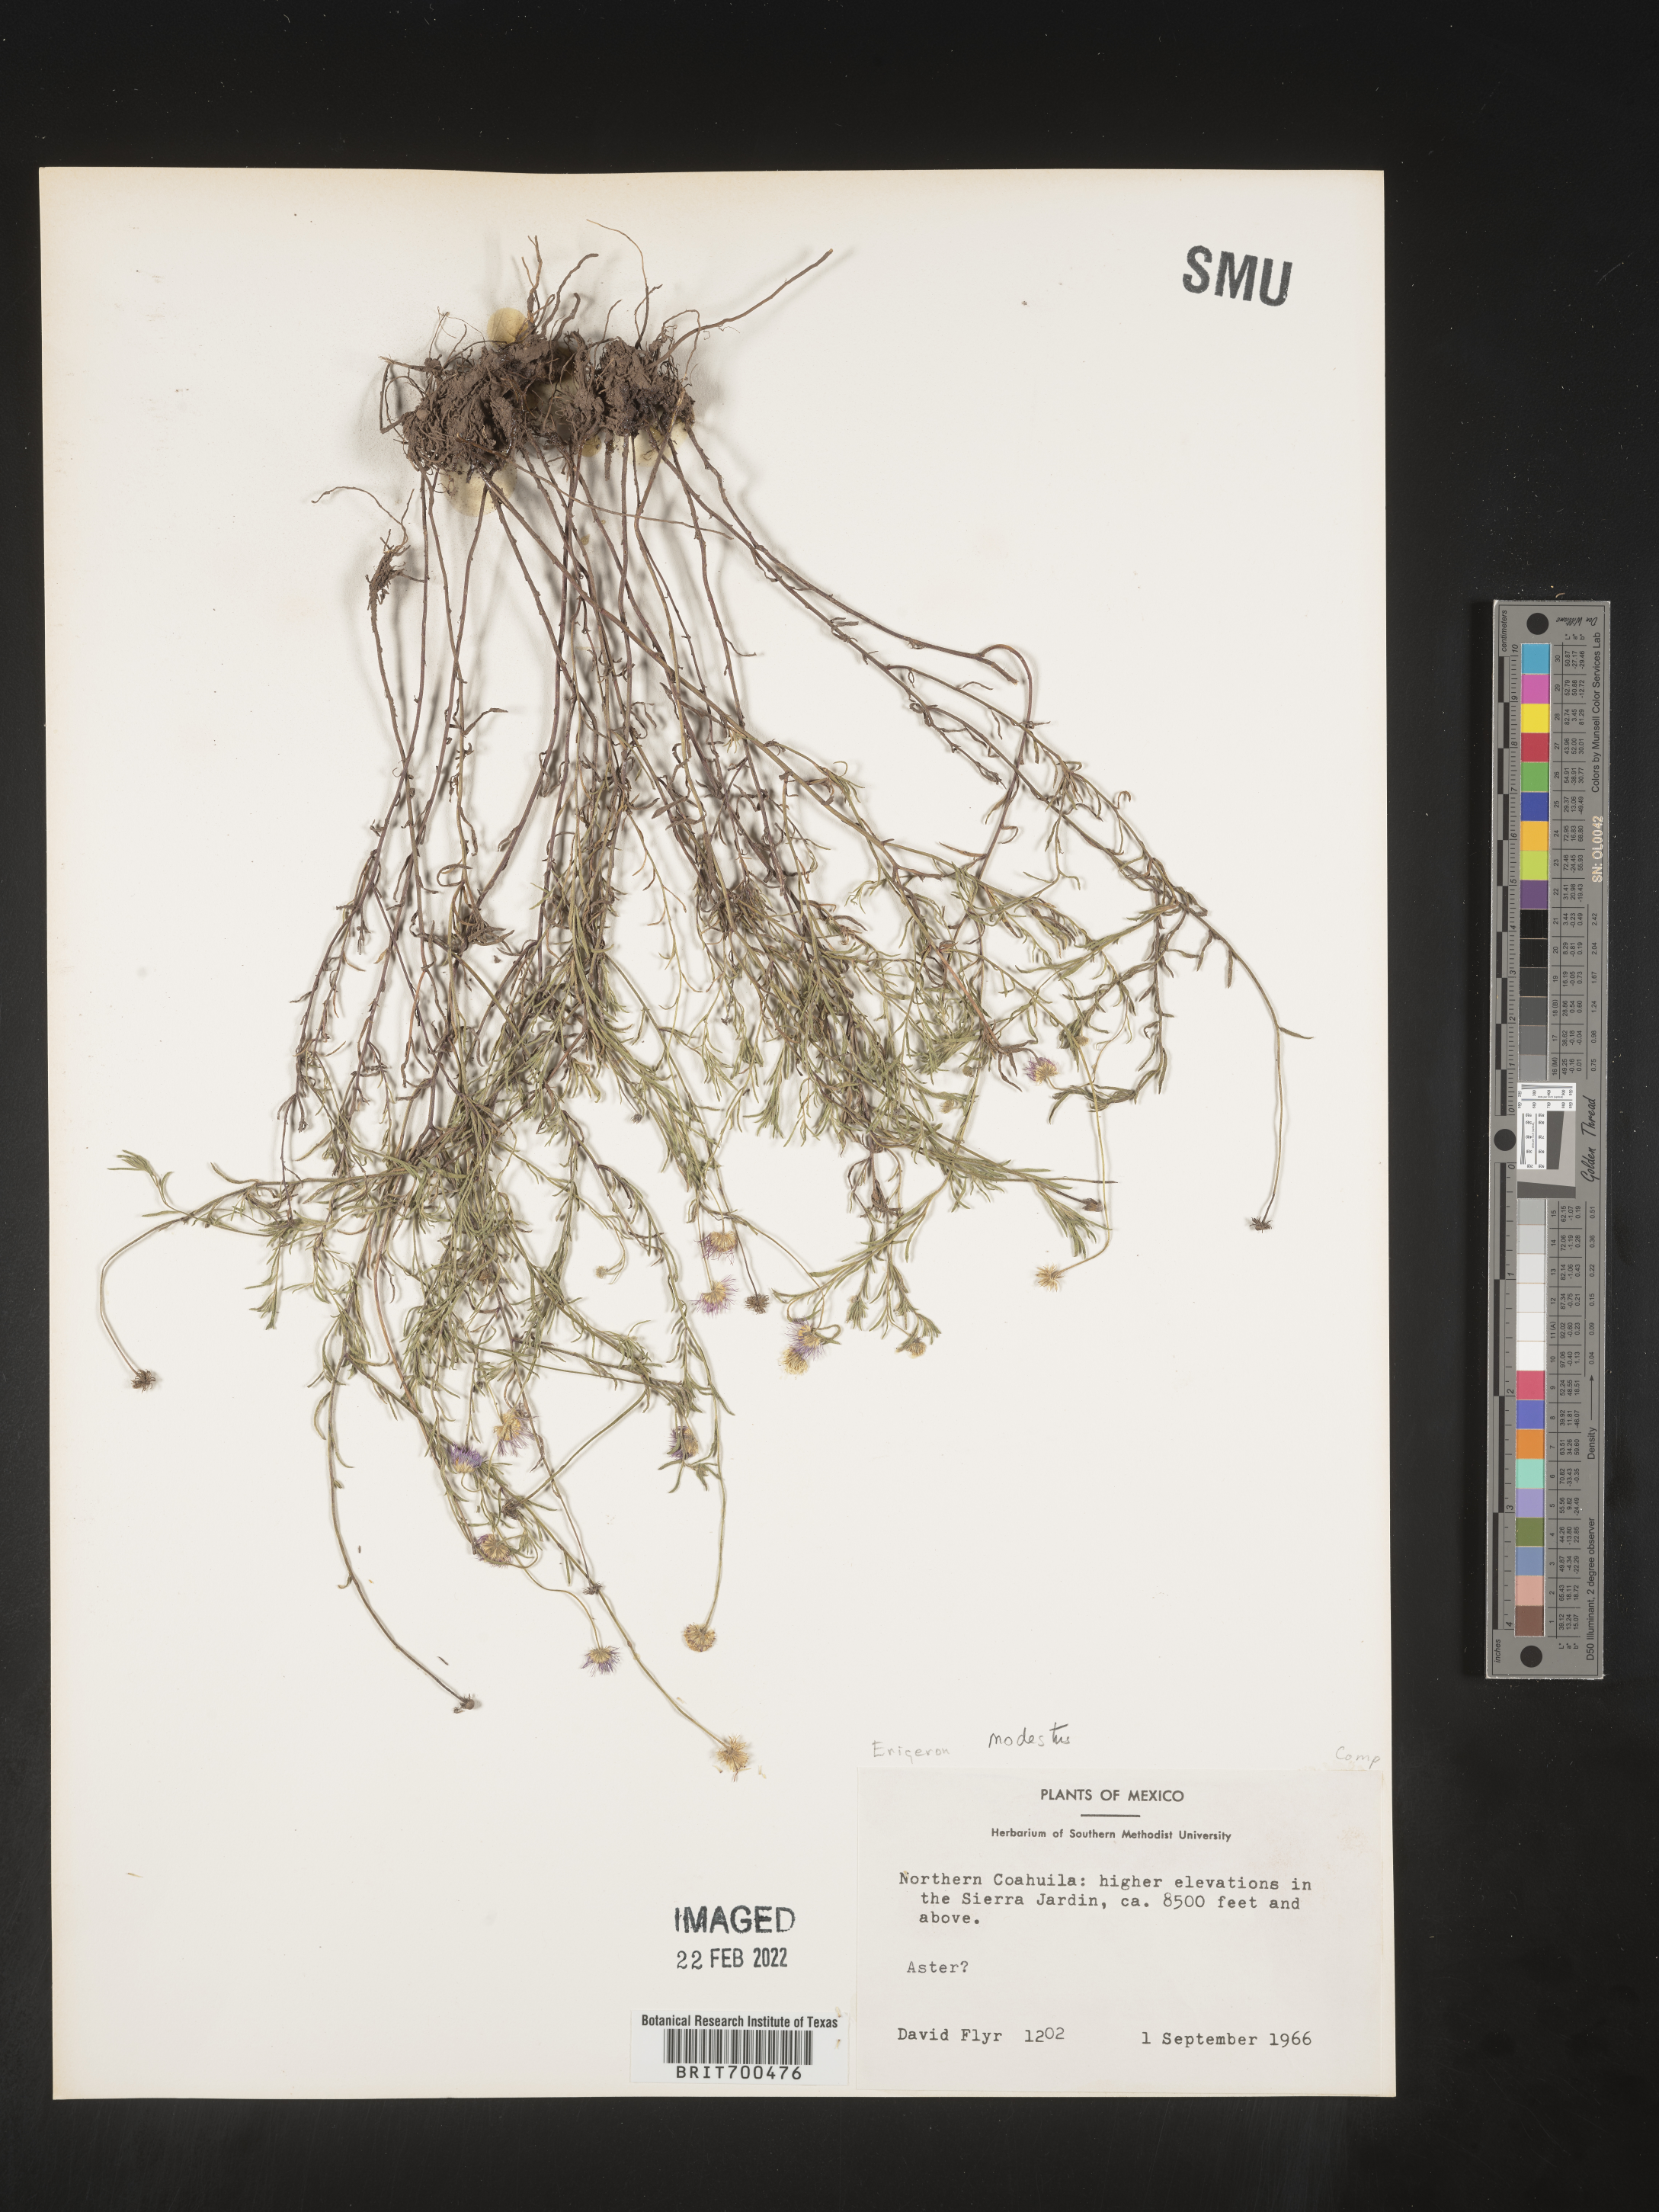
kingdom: Plantae
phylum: Tracheophyta
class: Magnoliopsida
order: Asterales
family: Asteraceae
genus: Erigeron
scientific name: Erigeron
